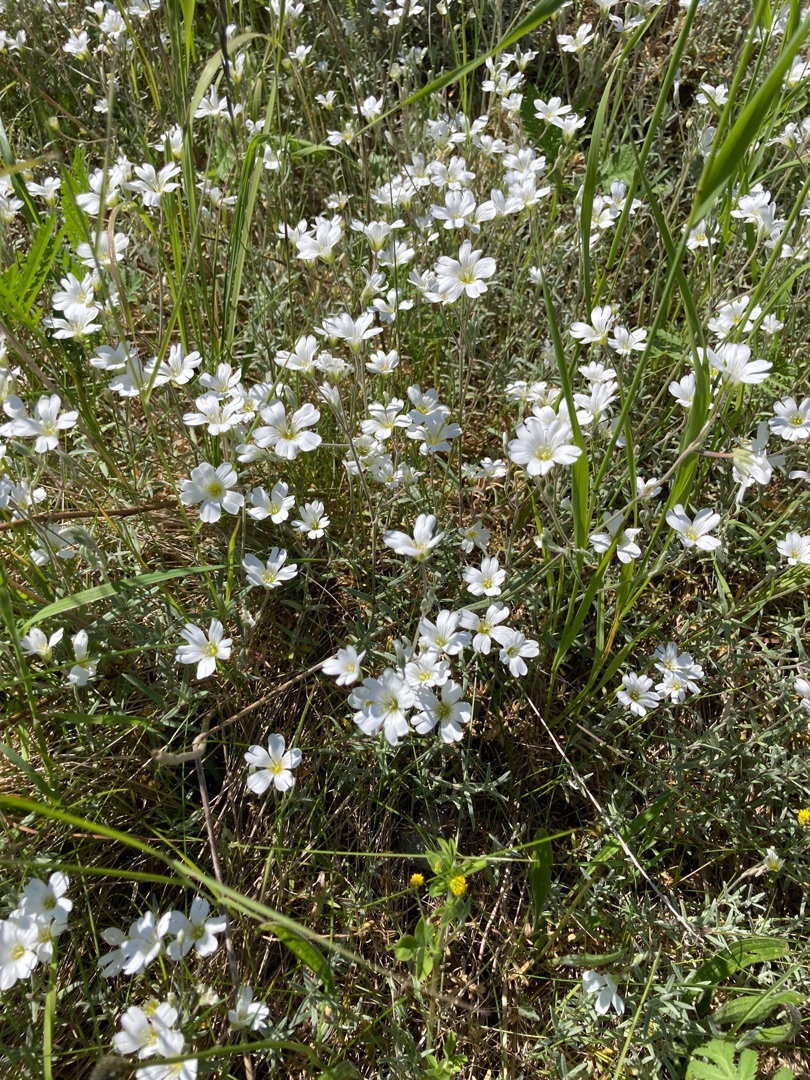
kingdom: Plantae
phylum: Tracheophyta
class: Magnoliopsida
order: Caryophyllales
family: Caryophyllaceae
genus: Cerastium
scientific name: Cerastium tomentosum
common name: Filtet hønsetarm
